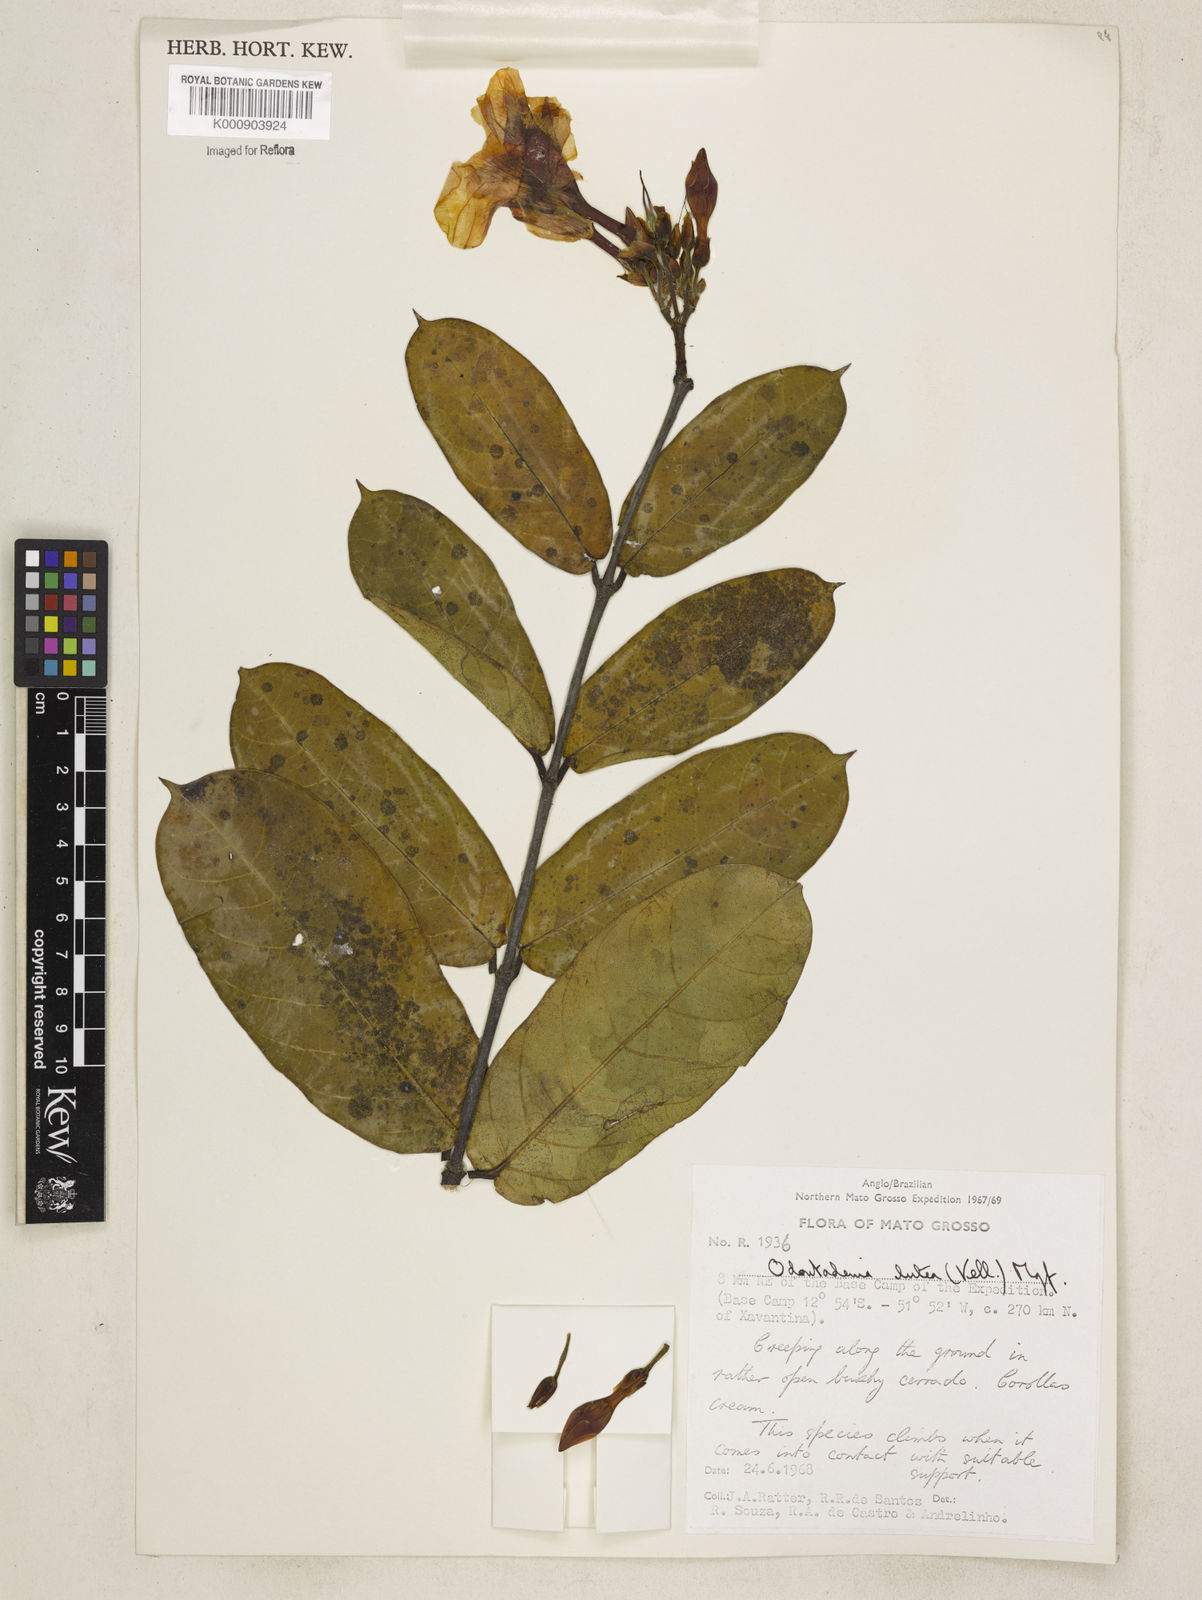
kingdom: Plantae
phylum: Tracheophyta
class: Magnoliopsida
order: Gentianales
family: Apocynaceae
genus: Odontadenia
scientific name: Odontadenia lutea
